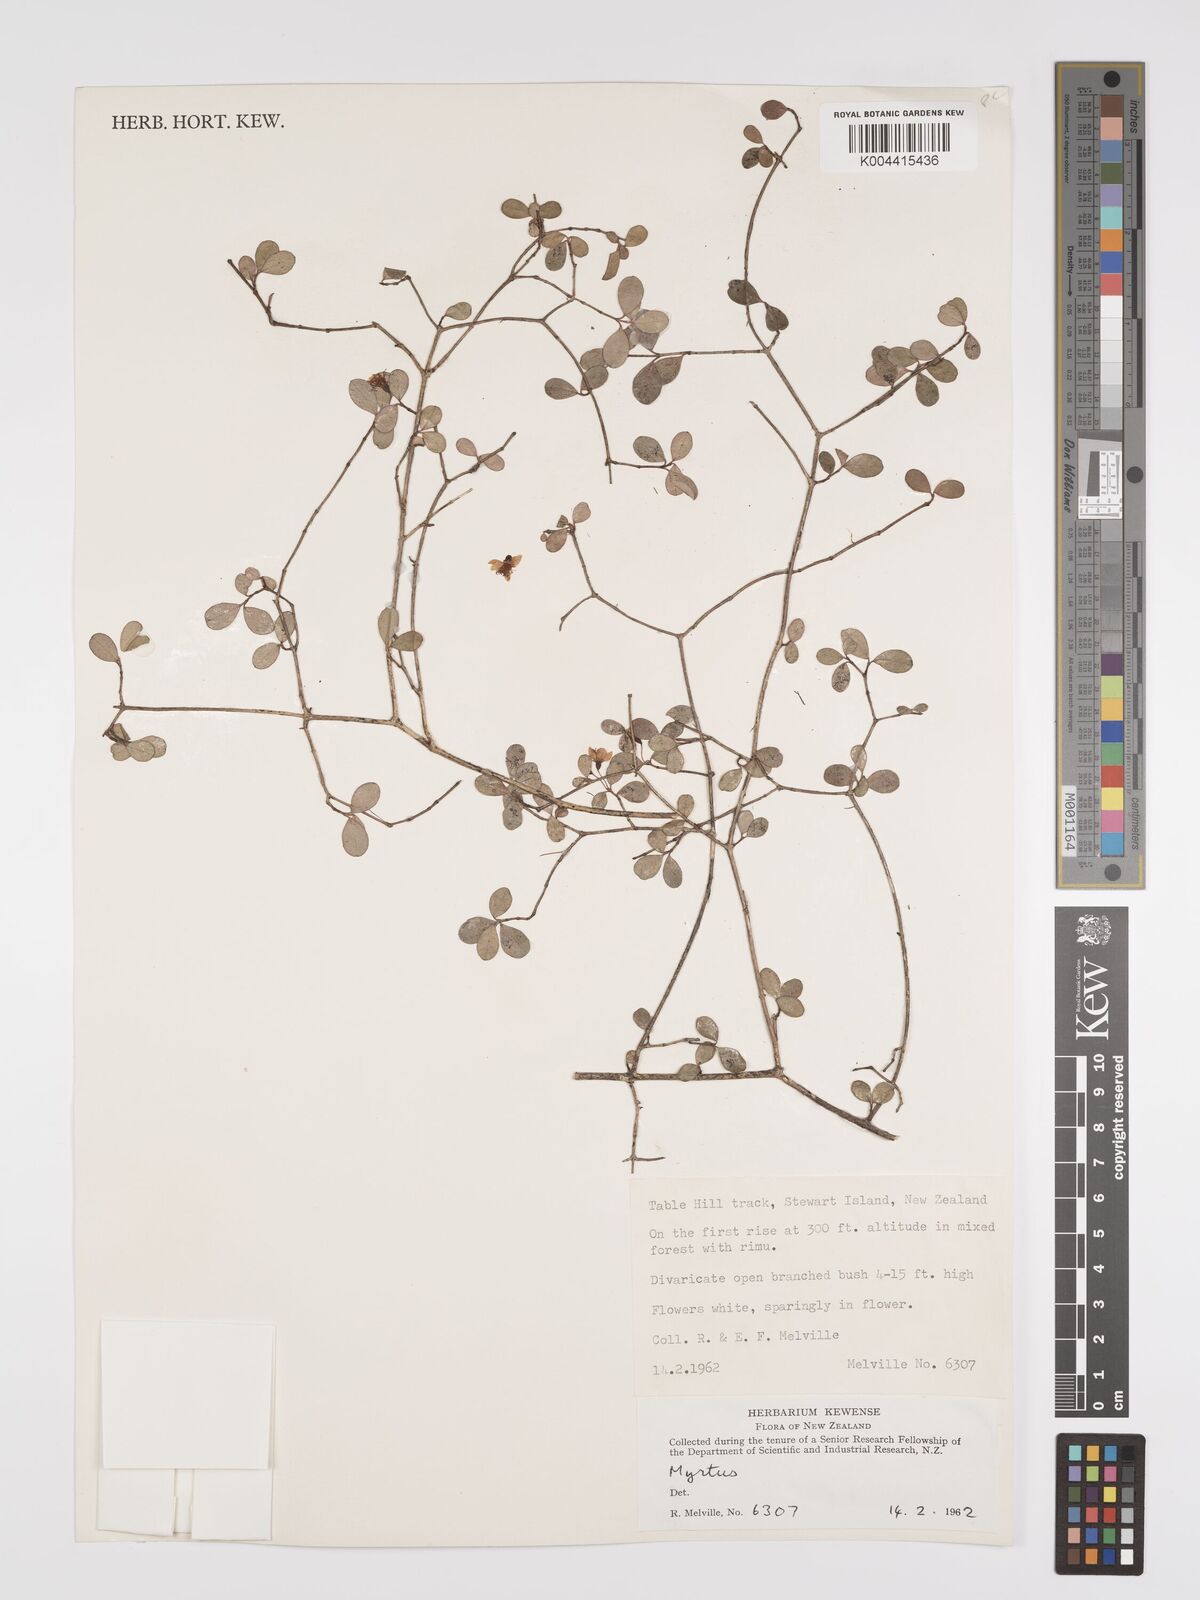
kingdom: Plantae
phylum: Tracheophyta
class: Magnoliopsida
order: Myrtales
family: Myrtaceae
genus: Neomyrtus
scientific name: Neomyrtus pedunculata
